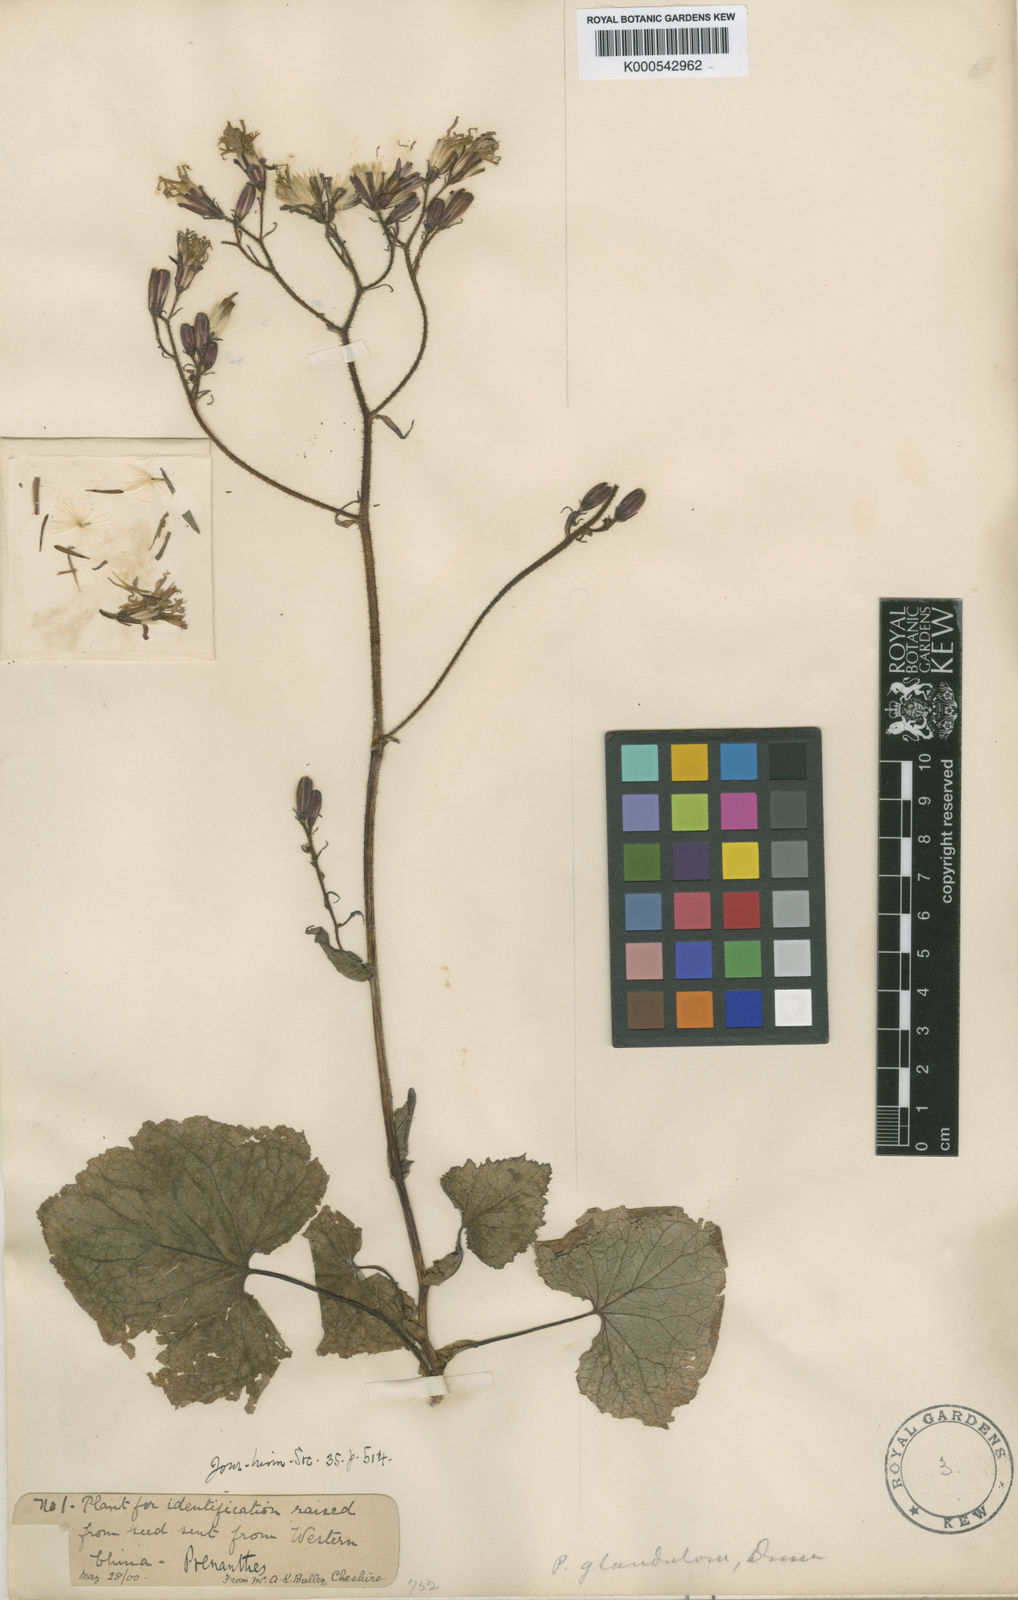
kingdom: Plantae
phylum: Tracheophyta
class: Magnoliopsida
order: Asterales
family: Asteraceae
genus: Paraprenanthes
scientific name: Paraprenanthes melanantha
